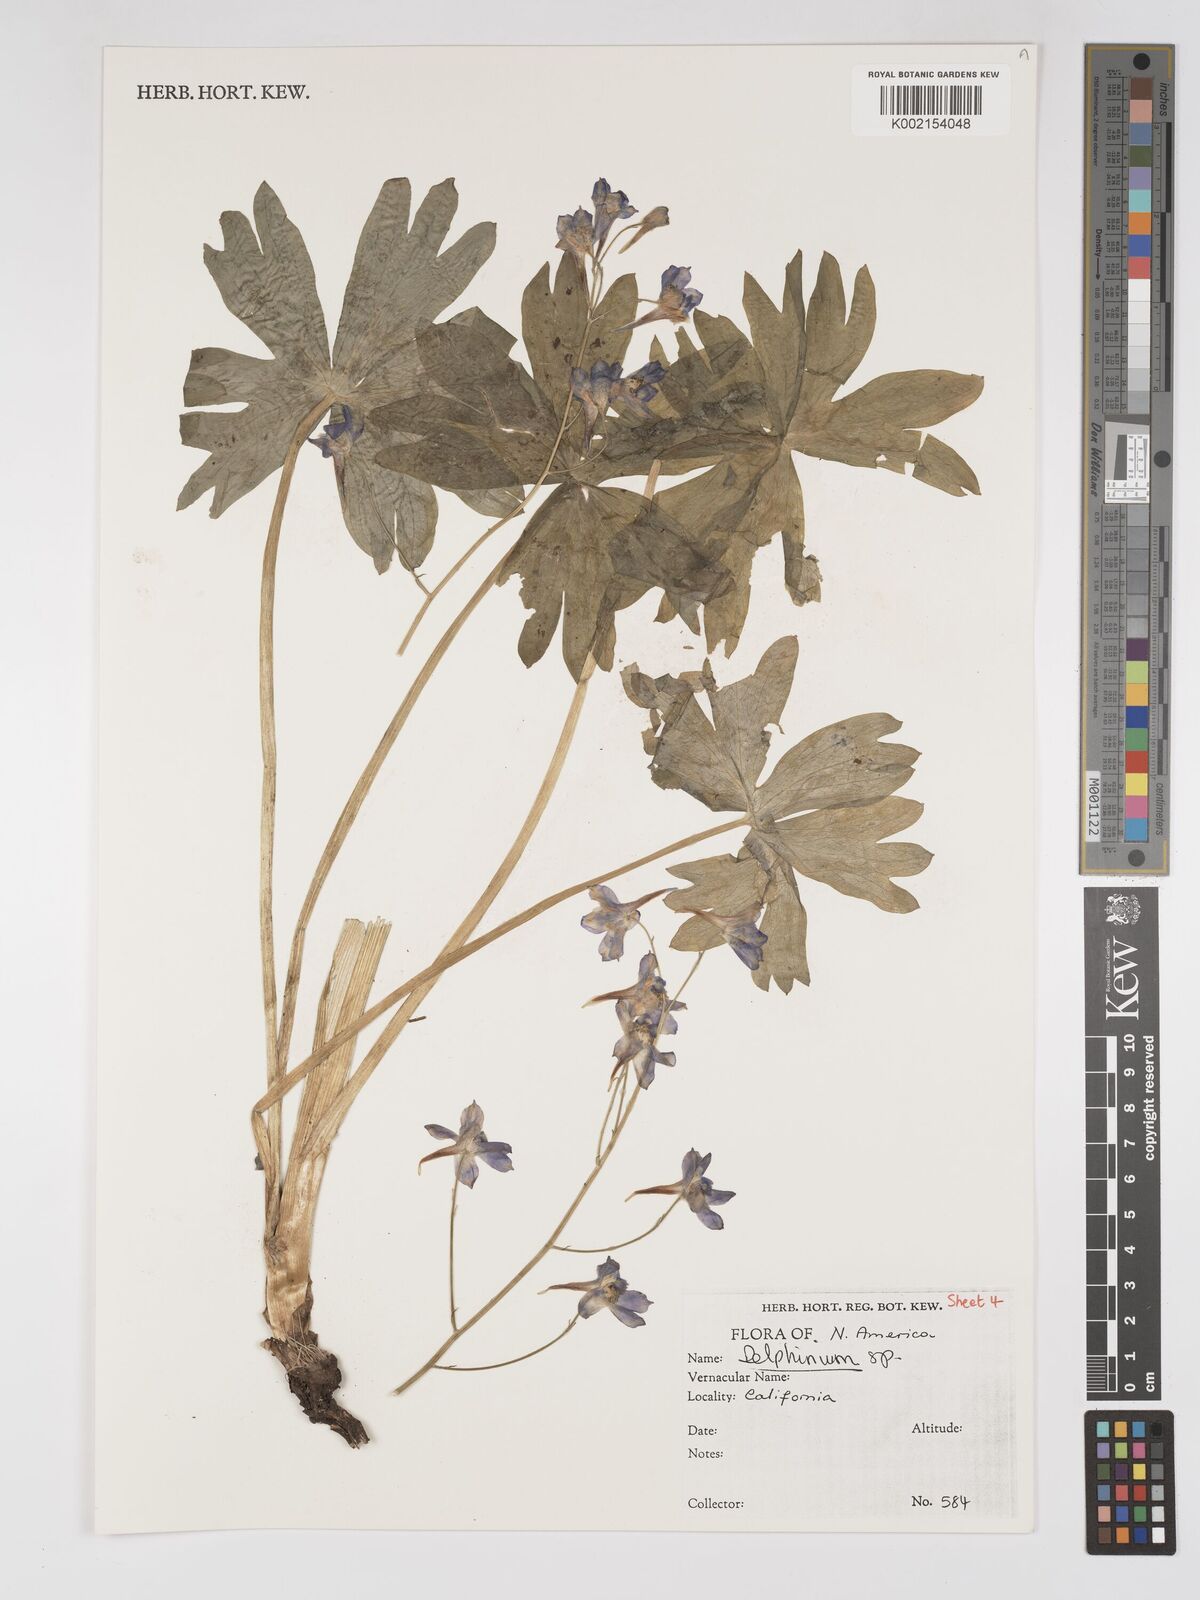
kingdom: Plantae
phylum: Tracheophyta
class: Magnoliopsida
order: Ranunculales
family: Ranunculaceae
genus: Delphinium
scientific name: Delphinium
